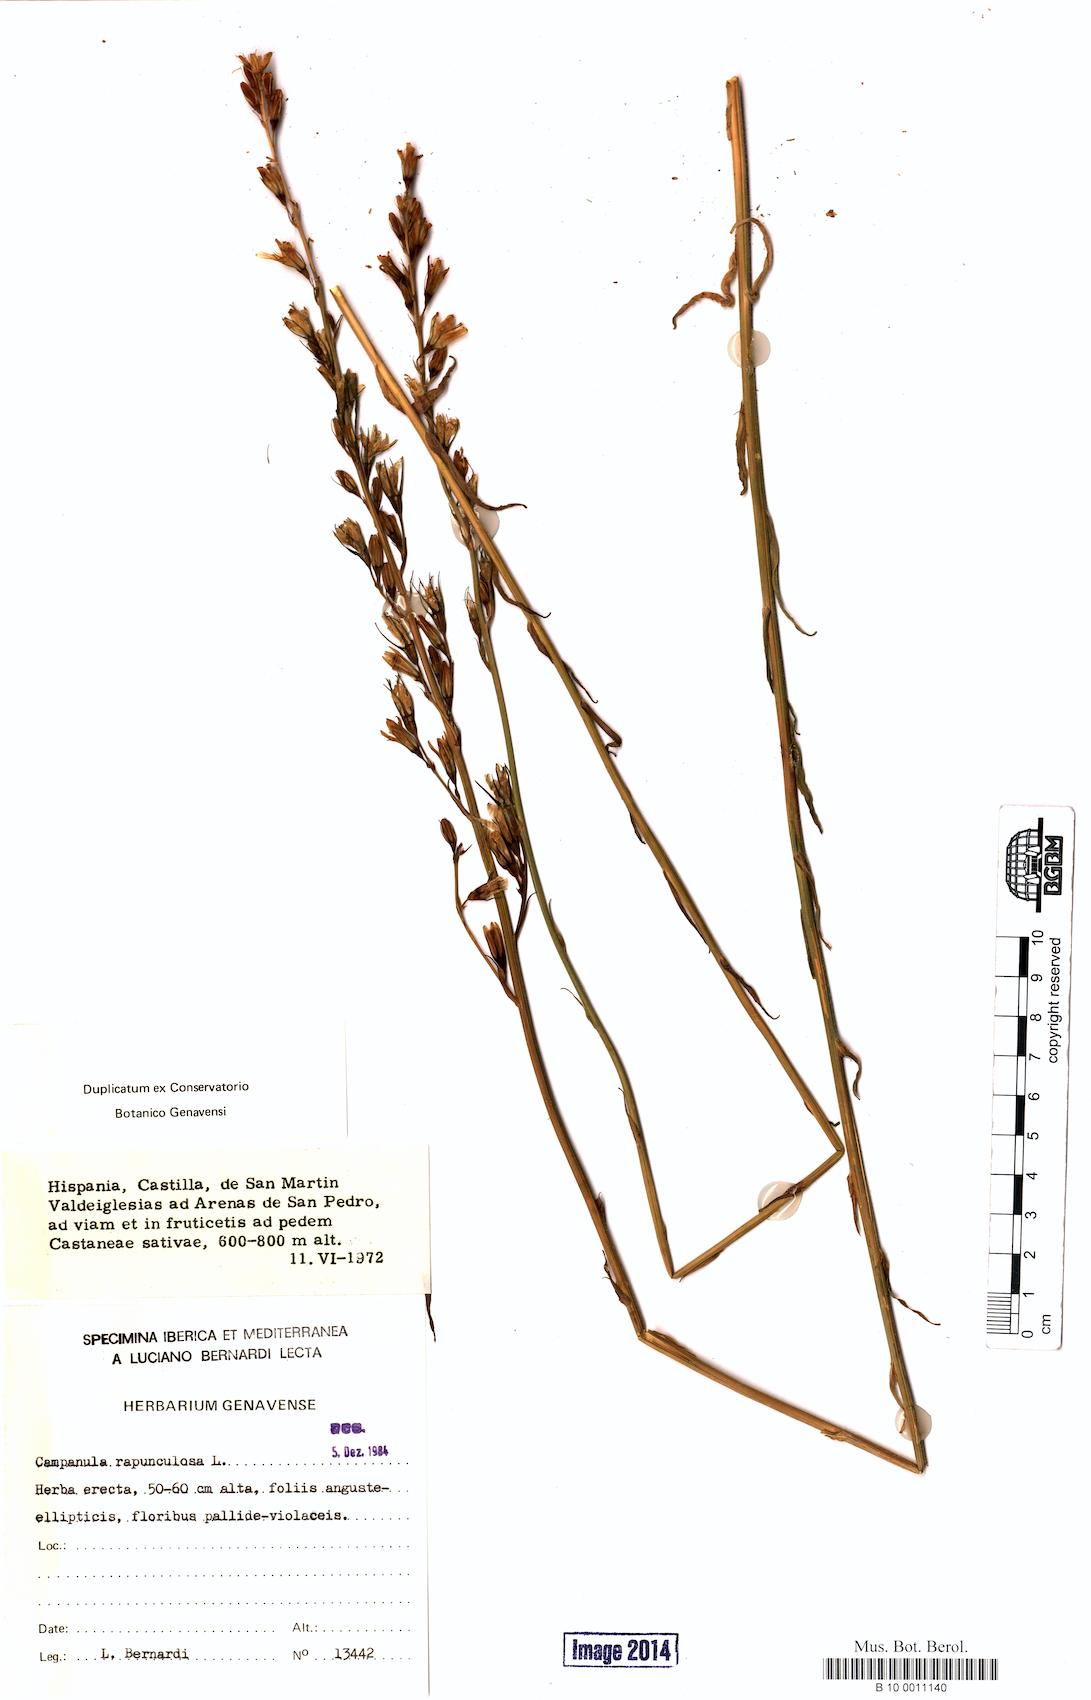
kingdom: Plantae
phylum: Tracheophyta
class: Magnoliopsida
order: Asterales
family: Campanulaceae
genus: Campanula
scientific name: Campanula rapunculoides
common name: Creeping bellflower
